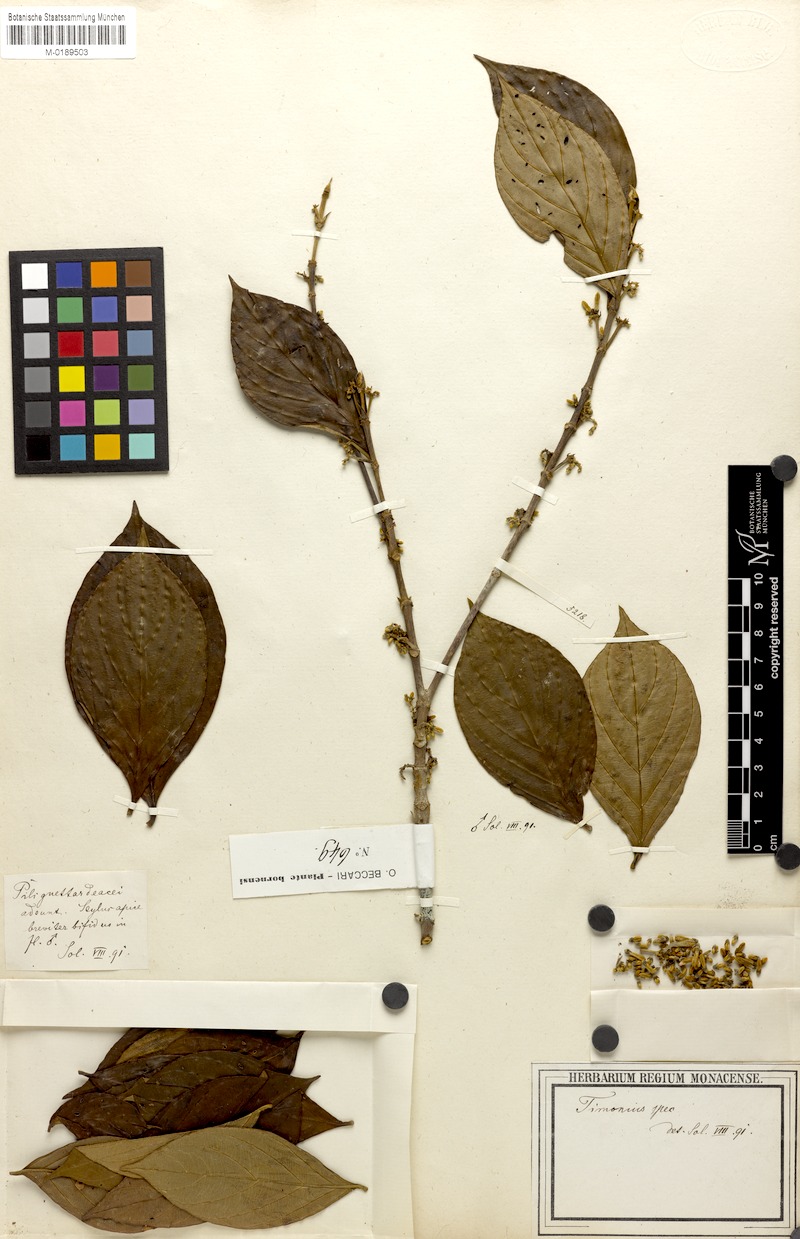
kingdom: Plantae
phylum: Tracheophyta
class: Magnoliopsida
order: Gentianales
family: Rubiaceae
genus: Timonius
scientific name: Timonius
